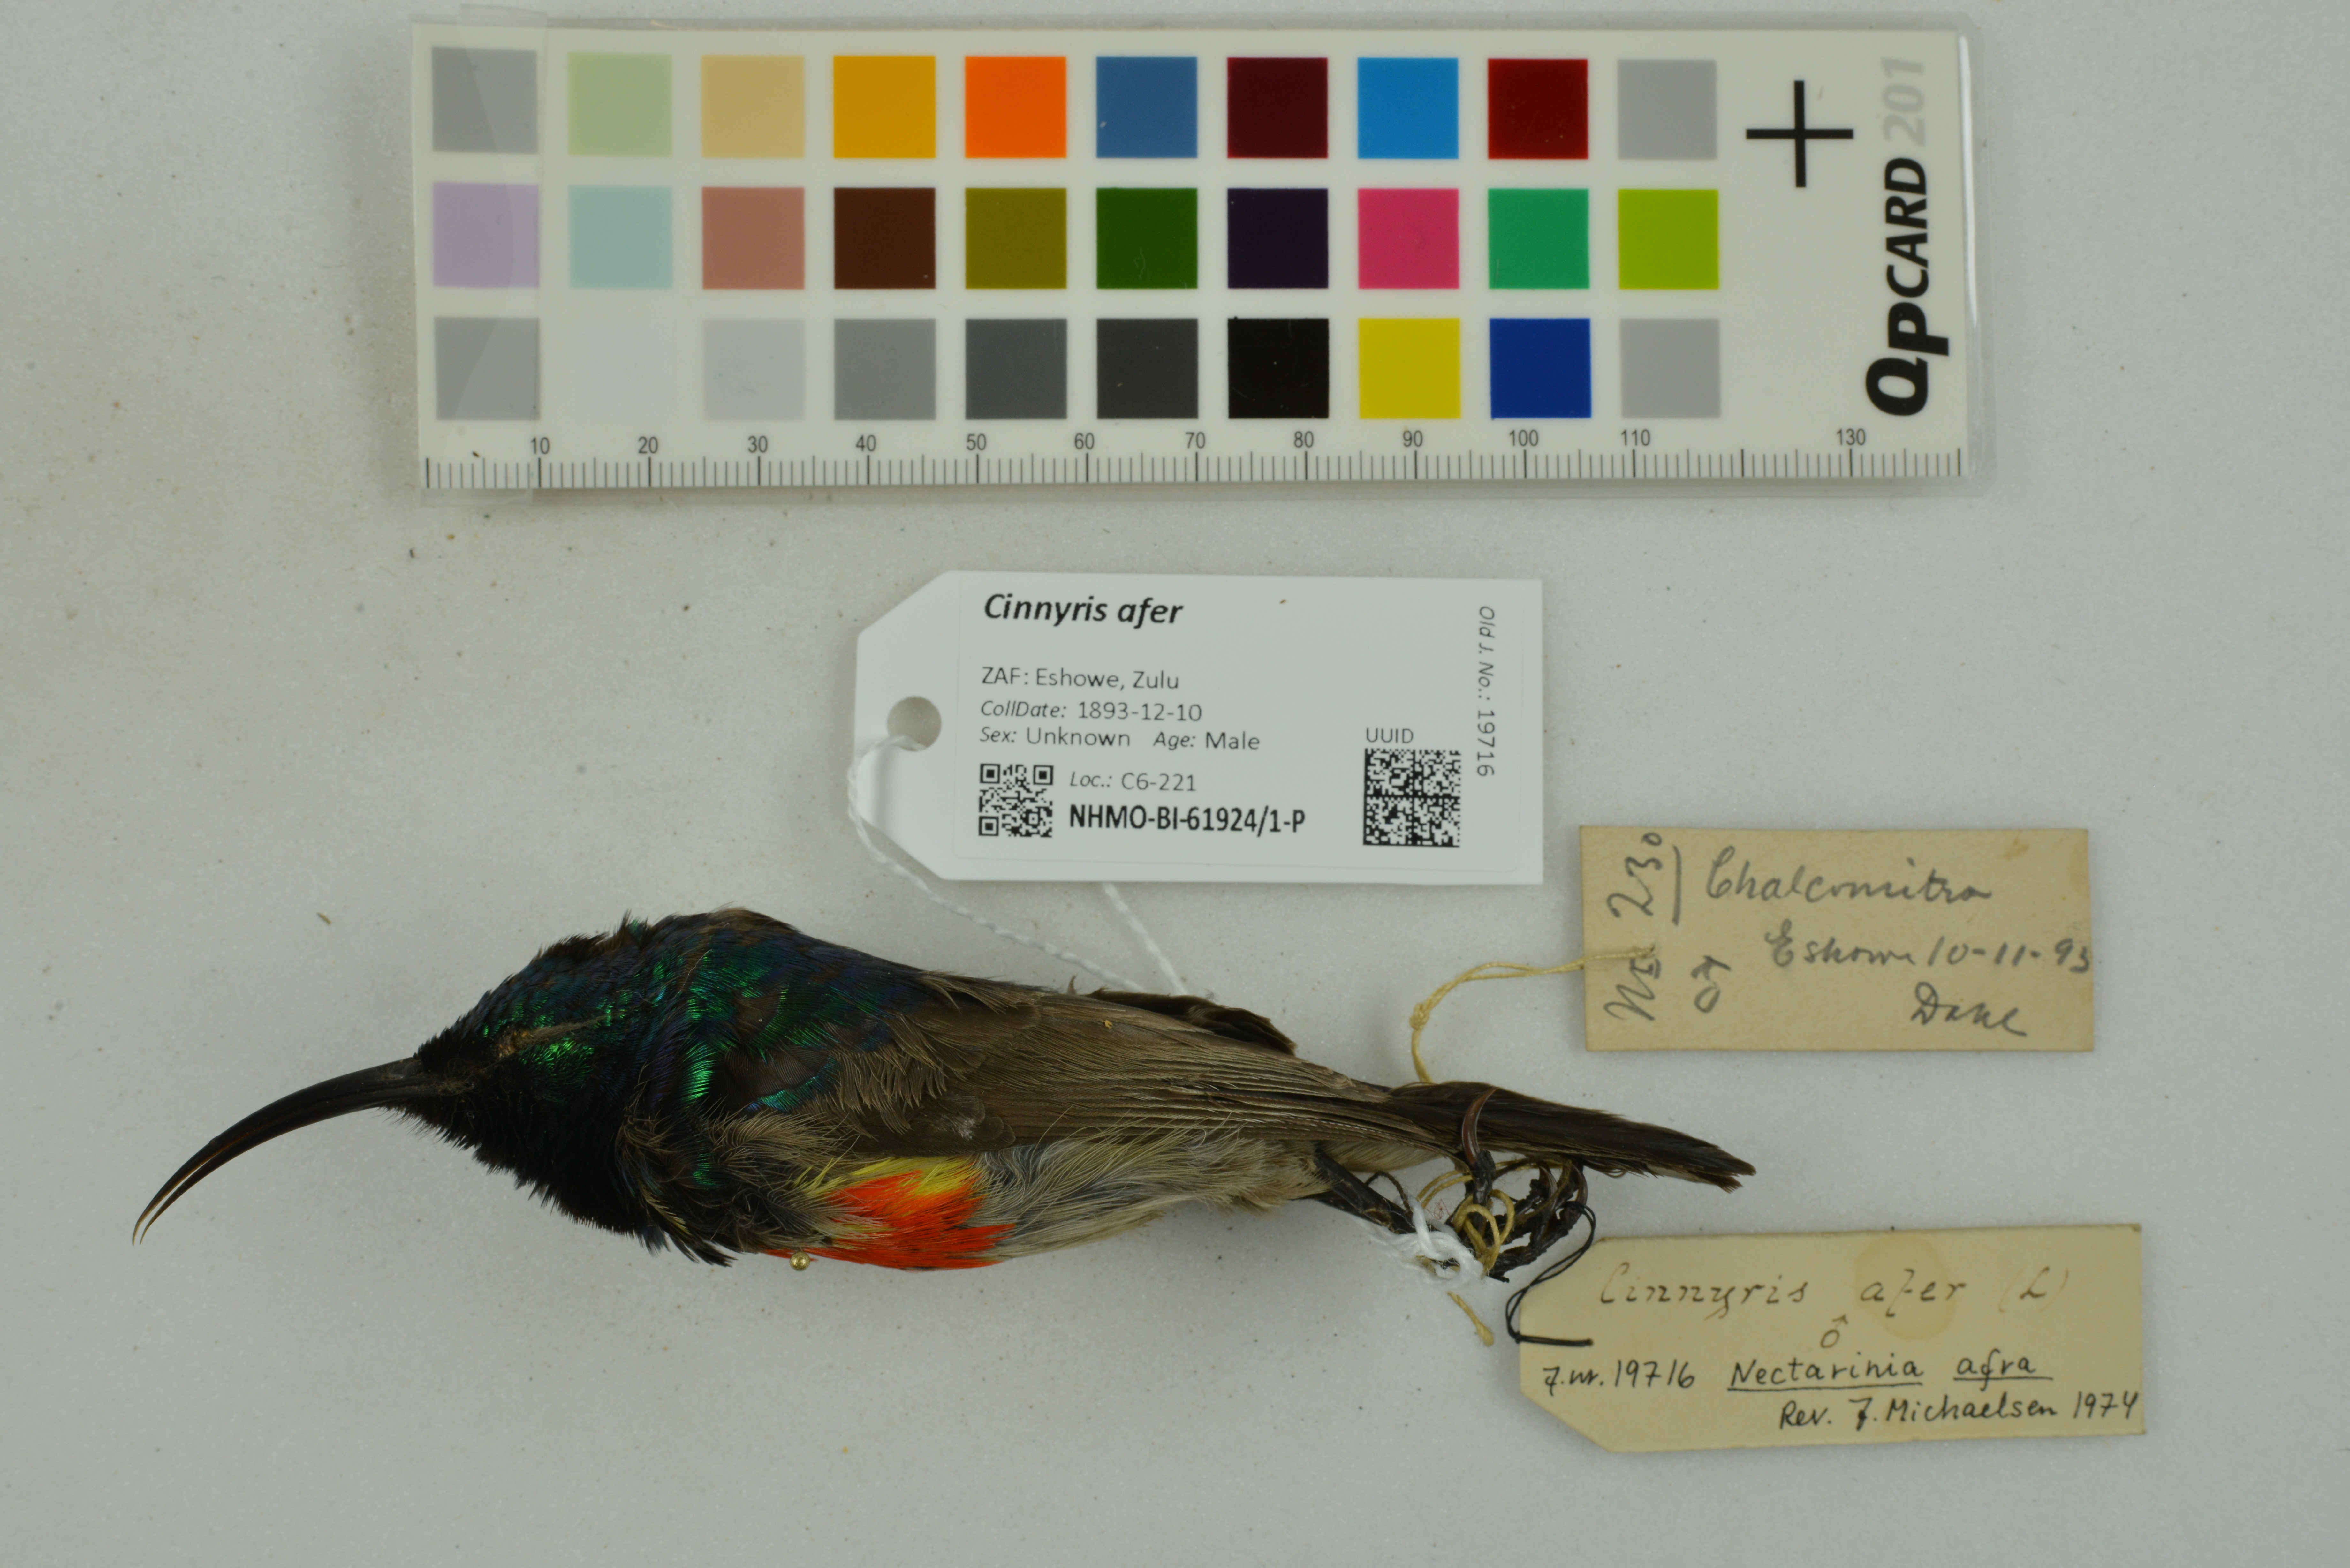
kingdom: Animalia
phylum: Chordata
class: Aves
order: Passeriformes
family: Nectariniidae
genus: Cinnyris
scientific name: Cinnyris afer
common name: Greater double-collared sunbird
